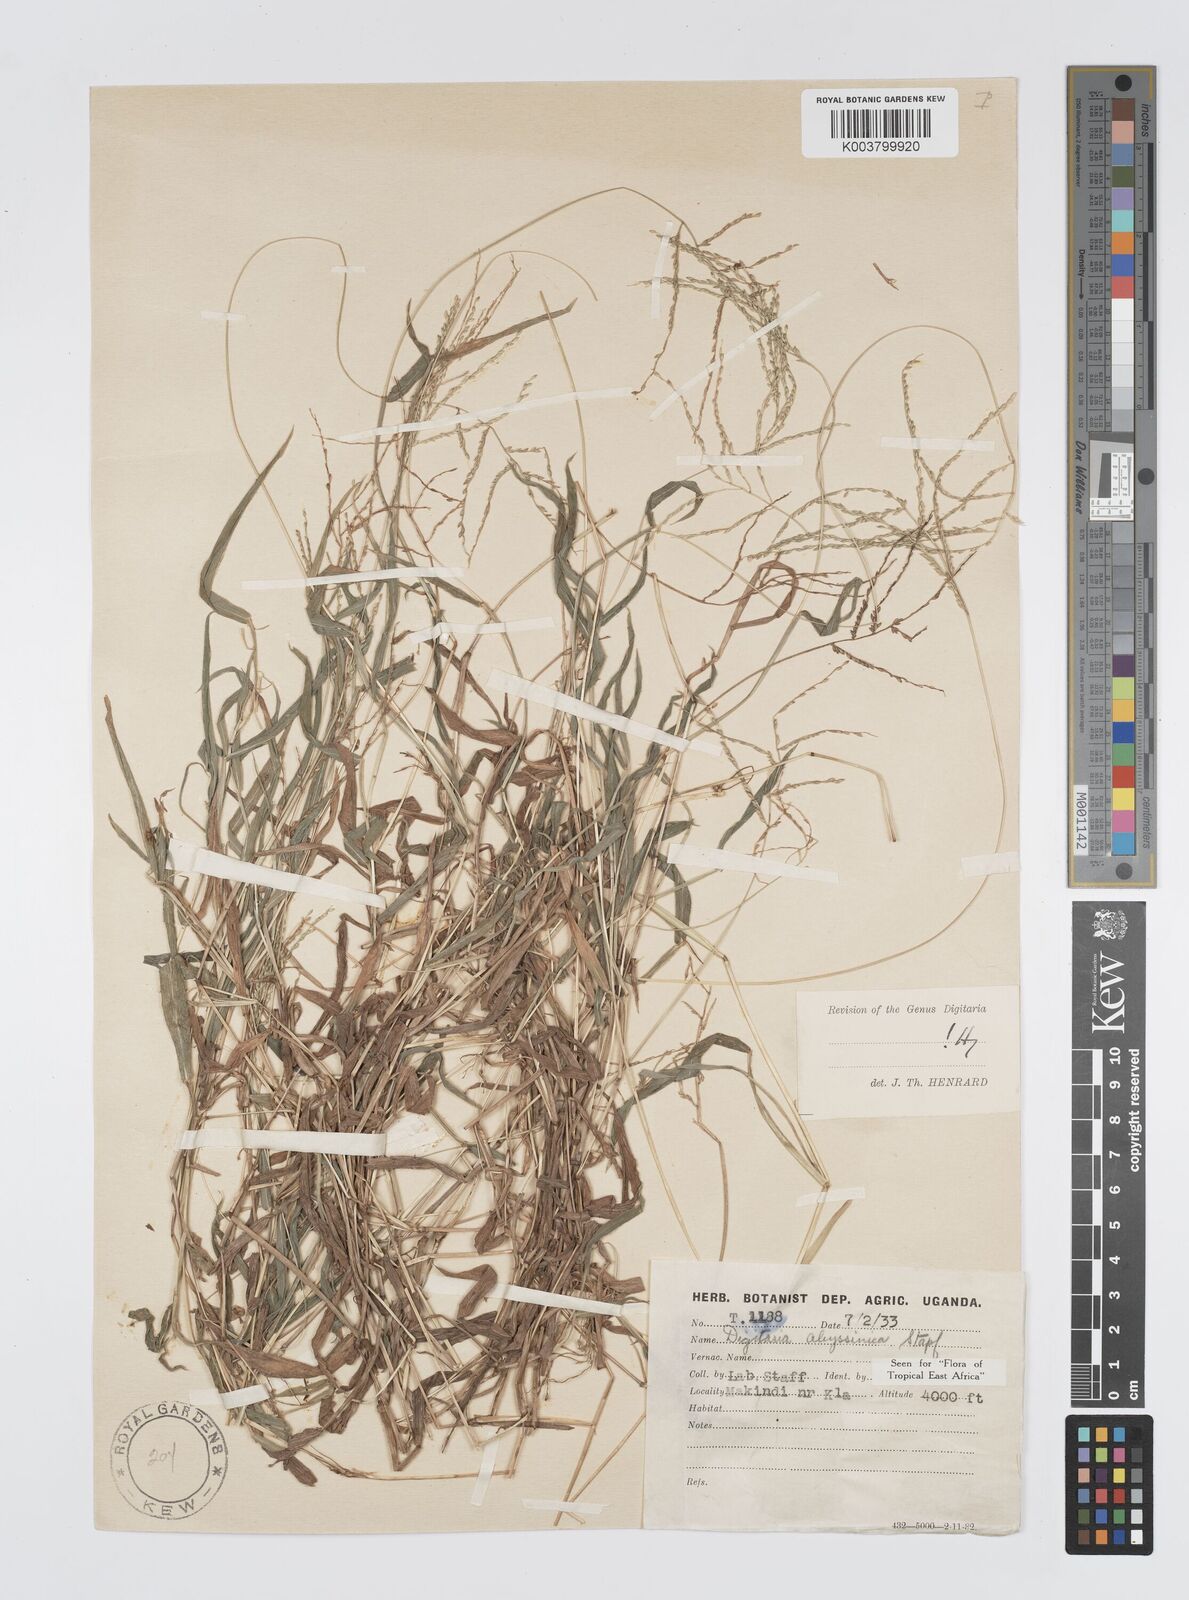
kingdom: Plantae
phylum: Tracheophyta
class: Liliopsida
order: Poales
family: Poaceae
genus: Digitaria
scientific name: Digitaria abyssinica
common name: African couchgrass
